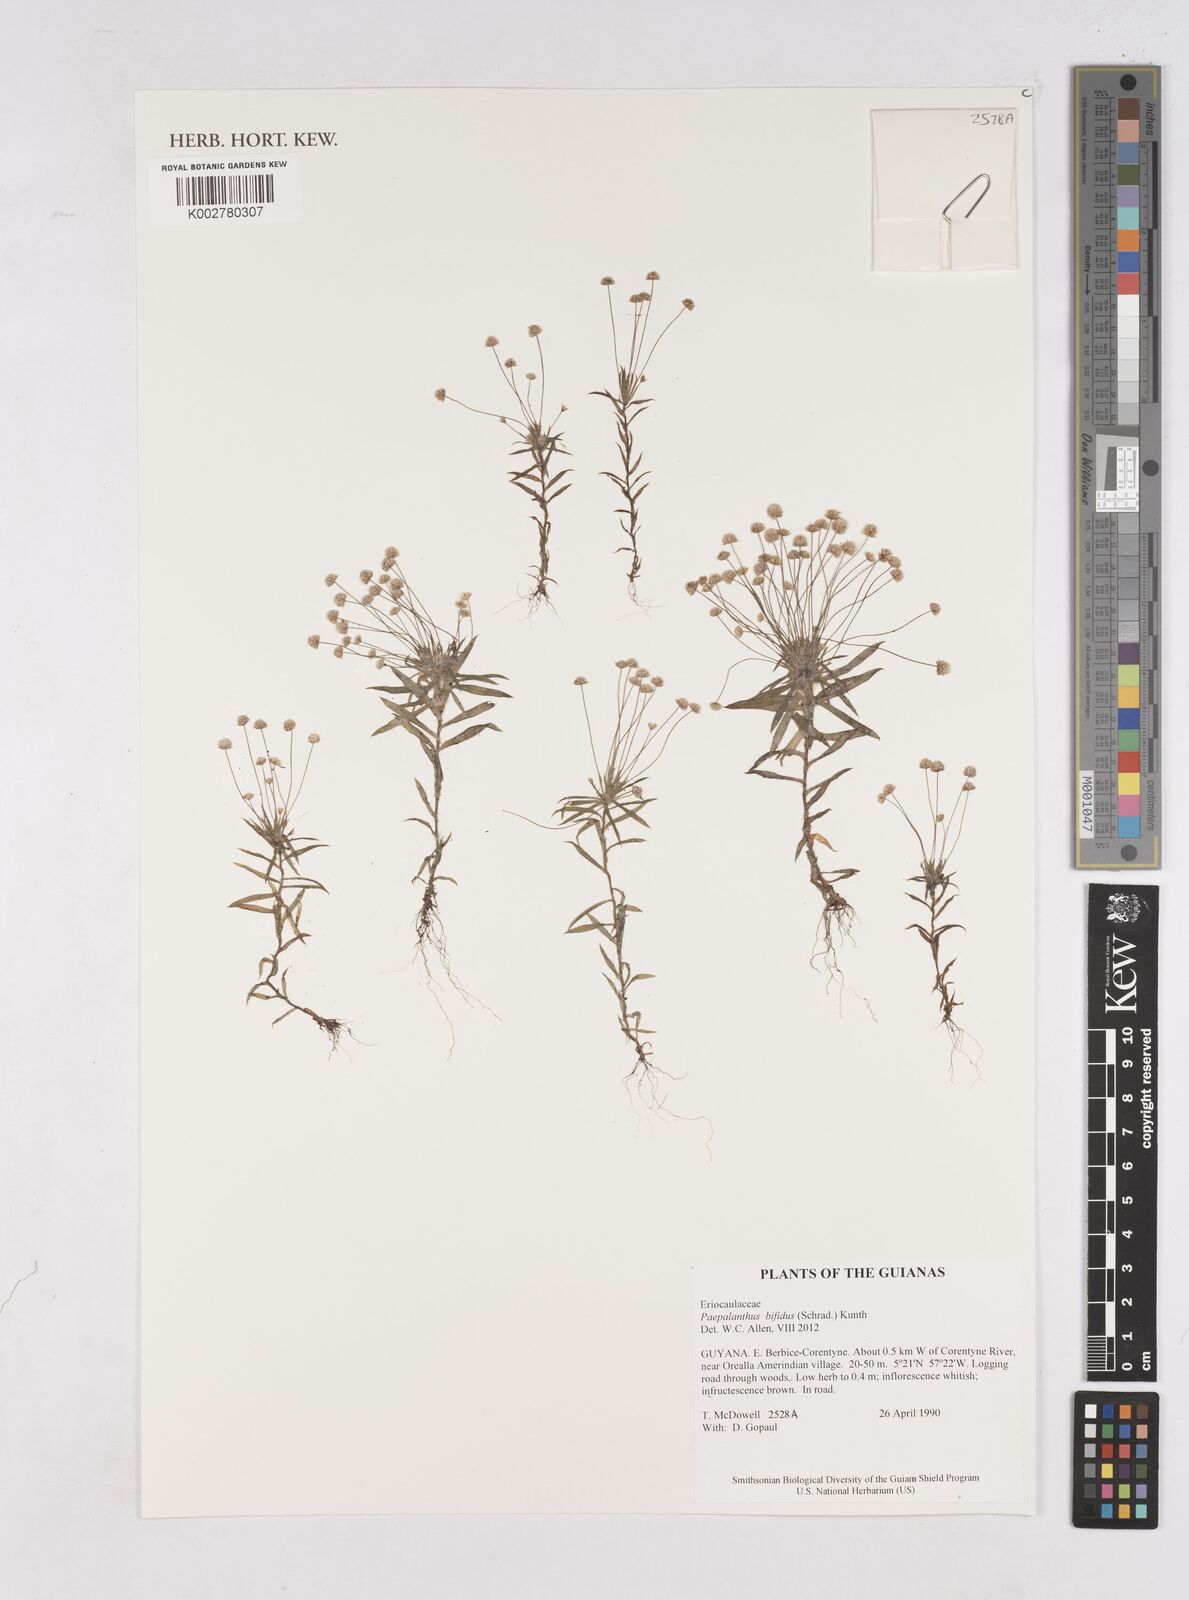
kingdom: Plantae
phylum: Tracheophyta
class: Liliopsida
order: Poales
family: Eriocaulaceae
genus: Paepalanthus
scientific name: Paepalanthus bifidus
